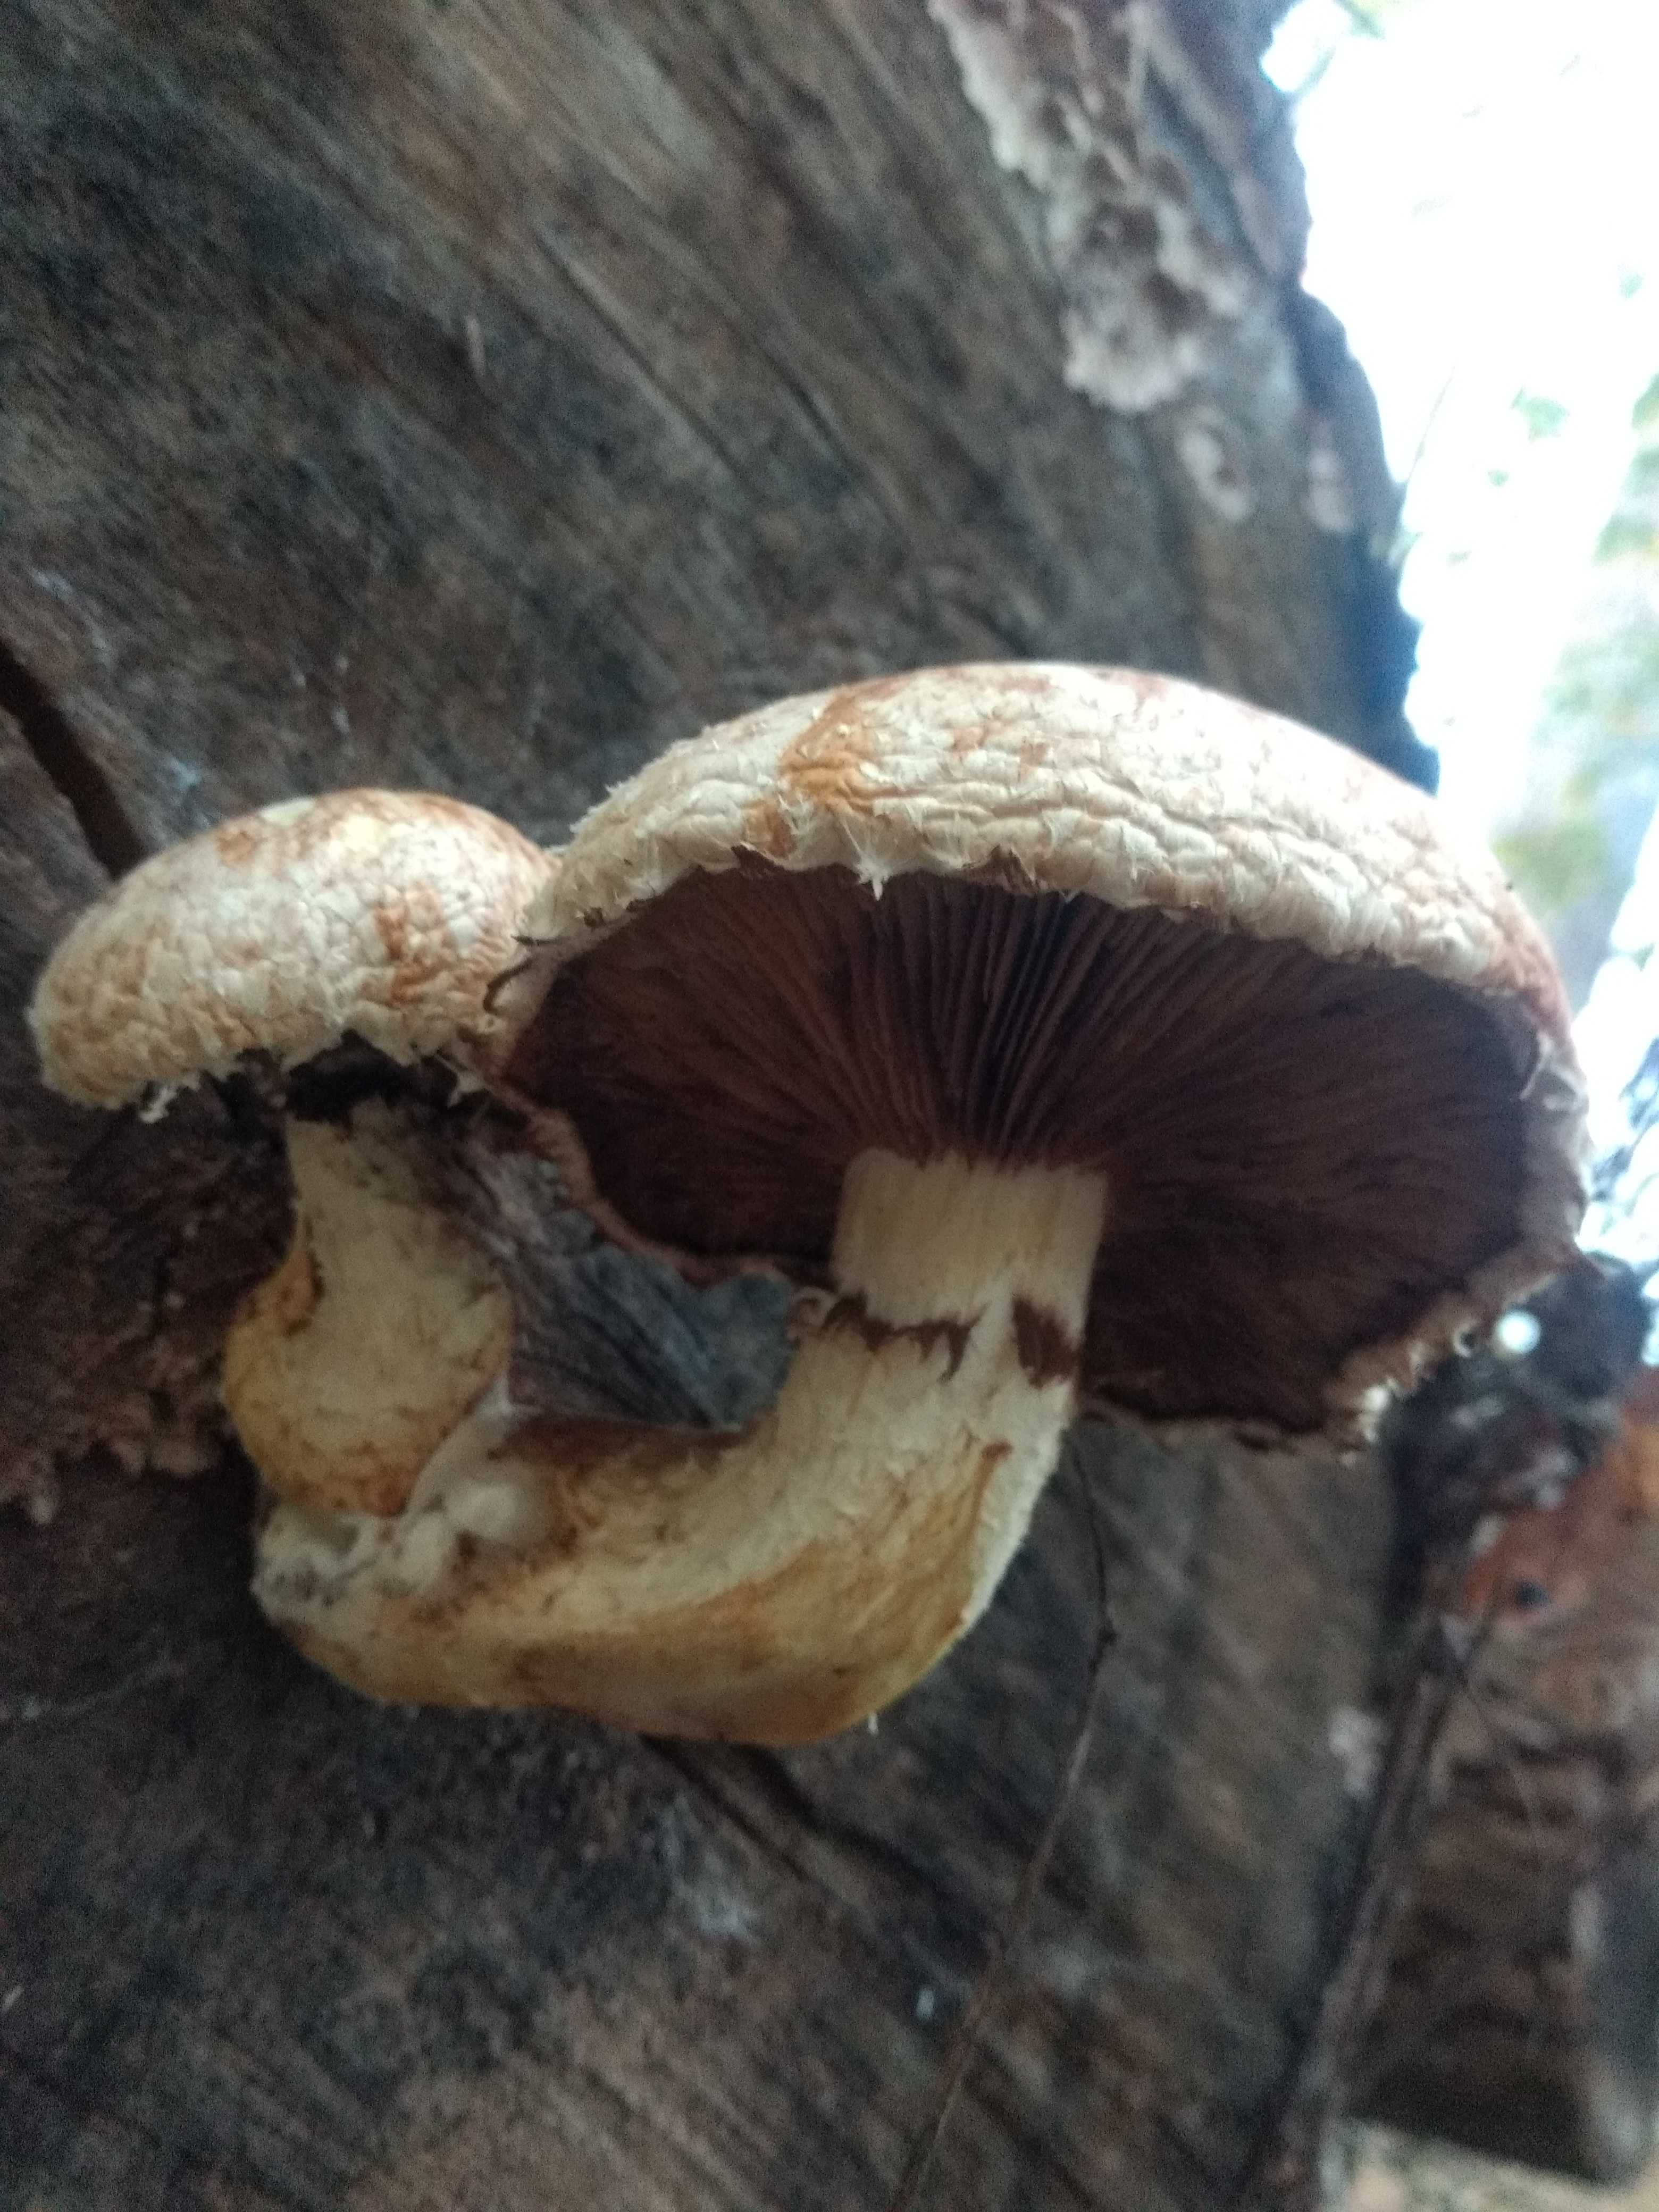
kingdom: Fungi
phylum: Basidiomycota
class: Agaricomycetes
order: Agaricales
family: Strophariaceae
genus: Pholiota
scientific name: Pholiota populnea
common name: poppel-kæmpeskælhat
